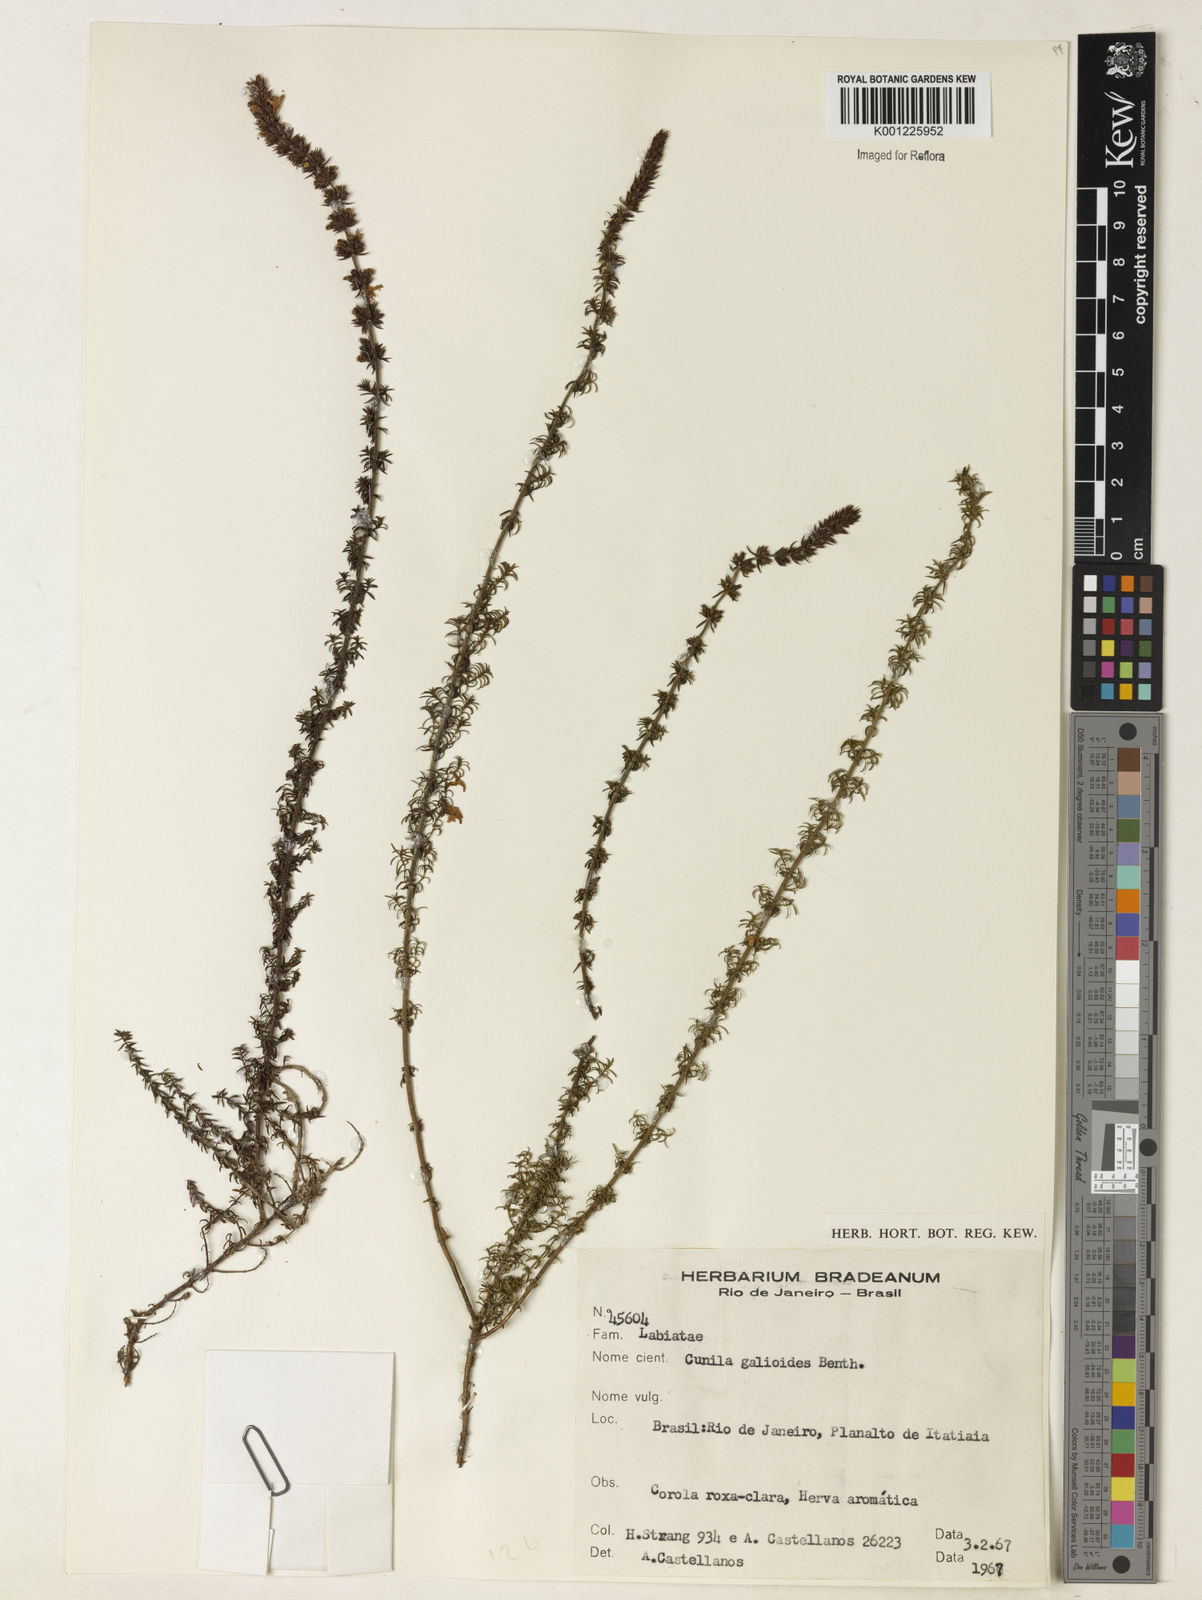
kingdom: Plantae
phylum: Tracheophyta
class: Magnoliopsida
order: Lamiales
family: Lamiaceae
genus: Cunila
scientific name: Cunila galioides
